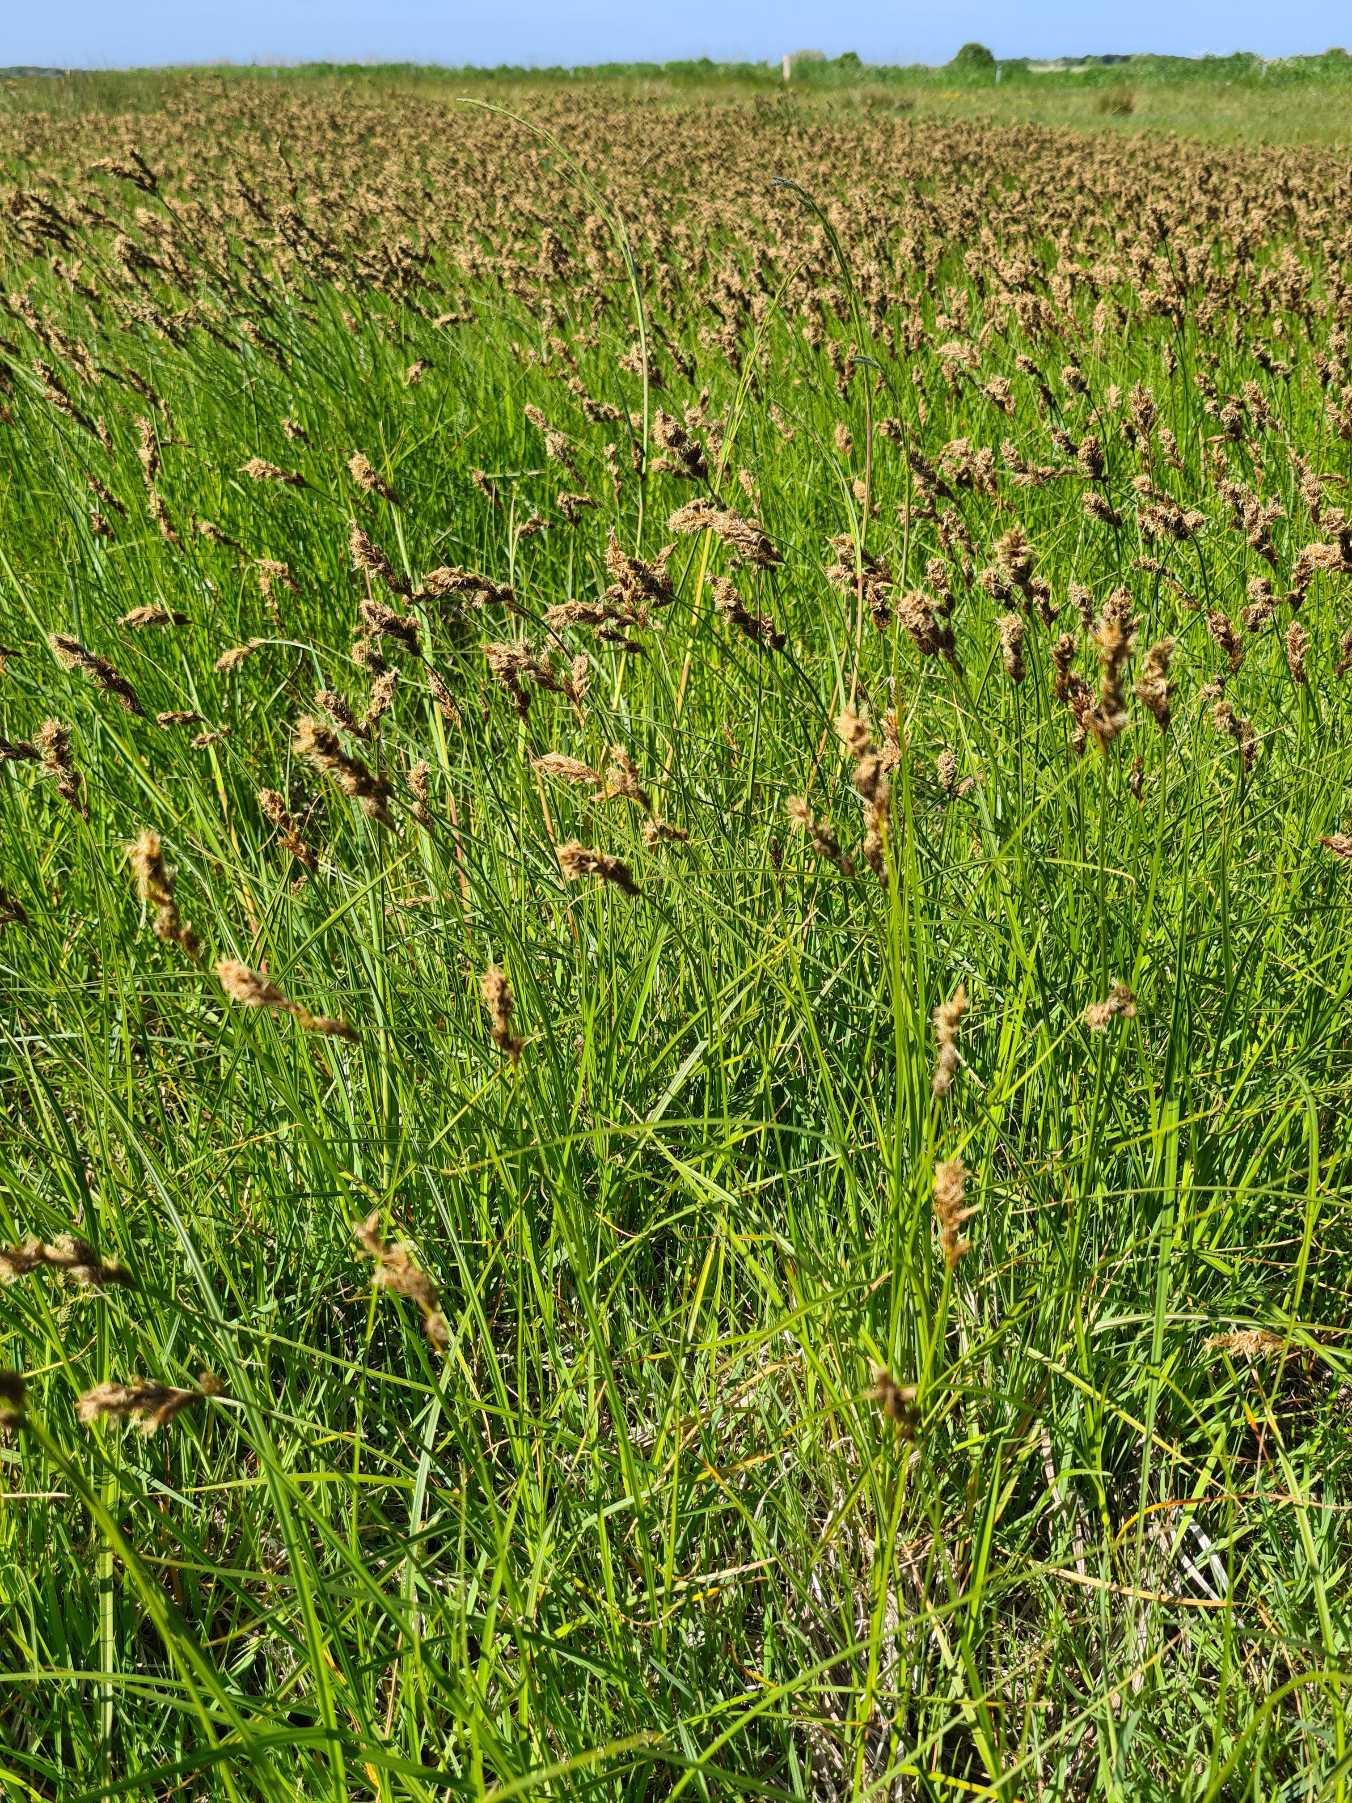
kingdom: Plantae
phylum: Tracheophyta
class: Liliopsida
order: Poales
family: Cyperaceae
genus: Carex
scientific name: Carex disticha
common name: Toradet star
